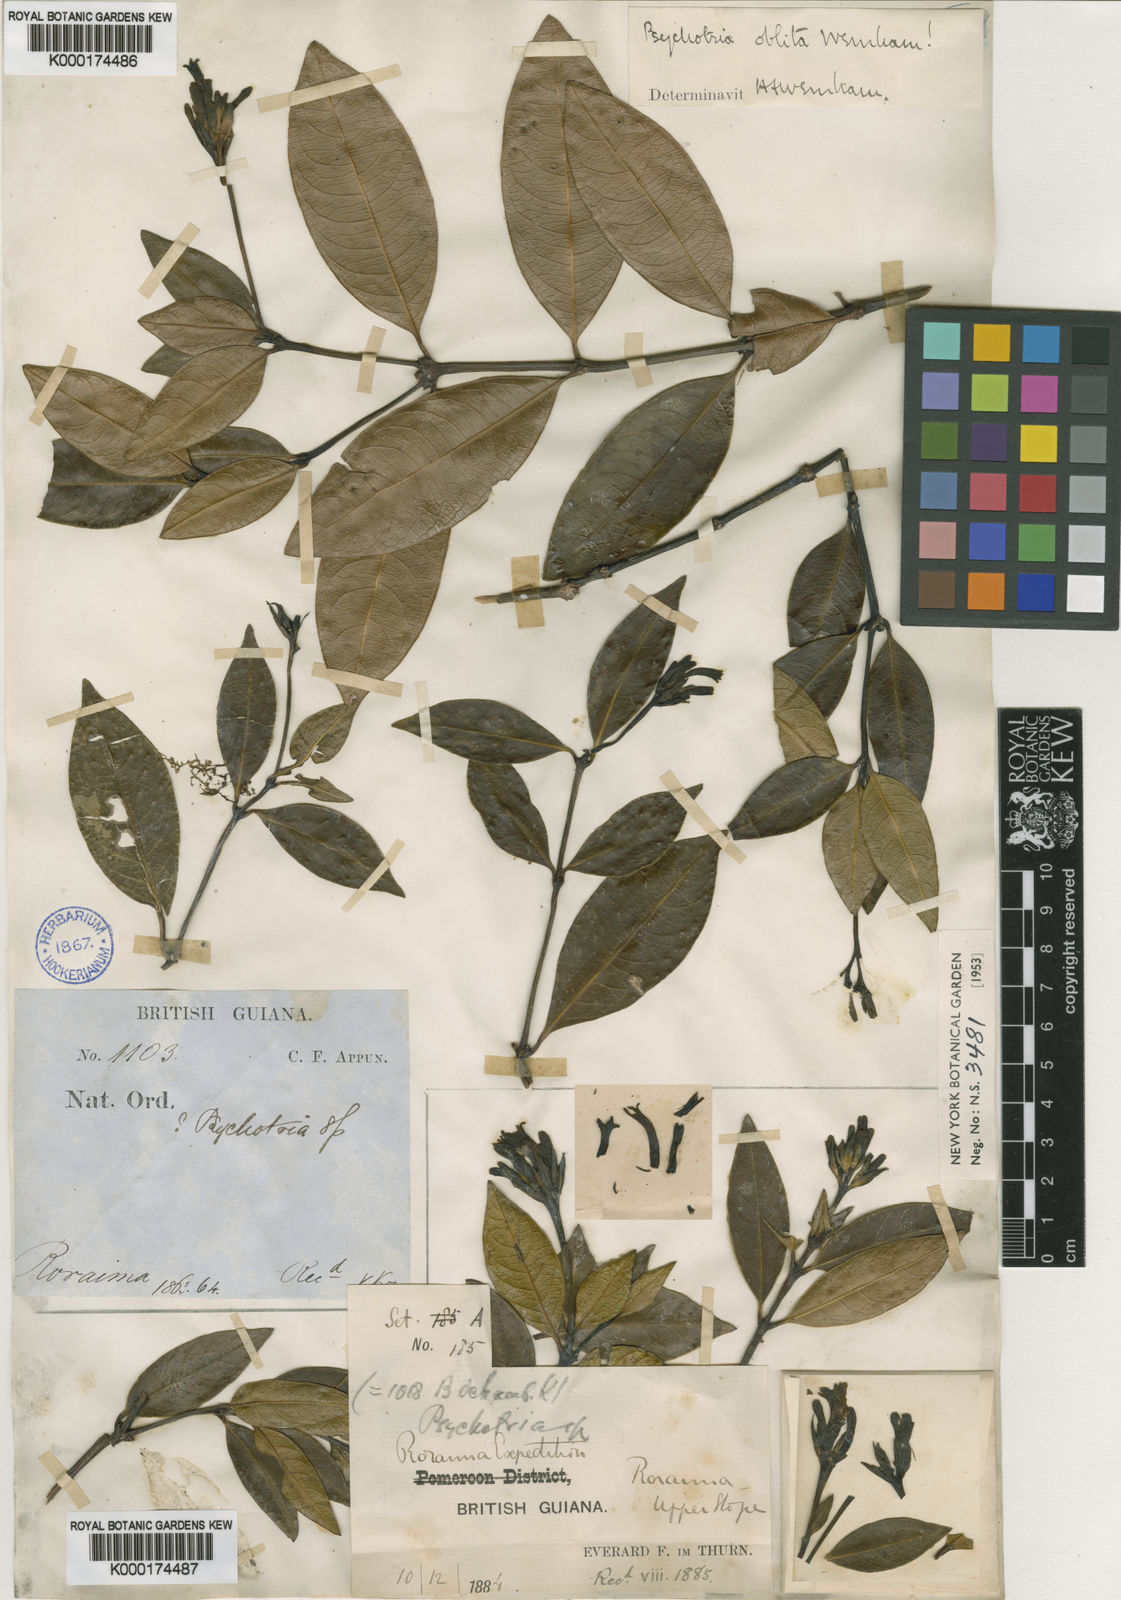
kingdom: Plantae
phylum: Tracheophyta
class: Magnoliopsida
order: Gentianales
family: Rubiaceae
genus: Palicourea
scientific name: Palicourea oblita
